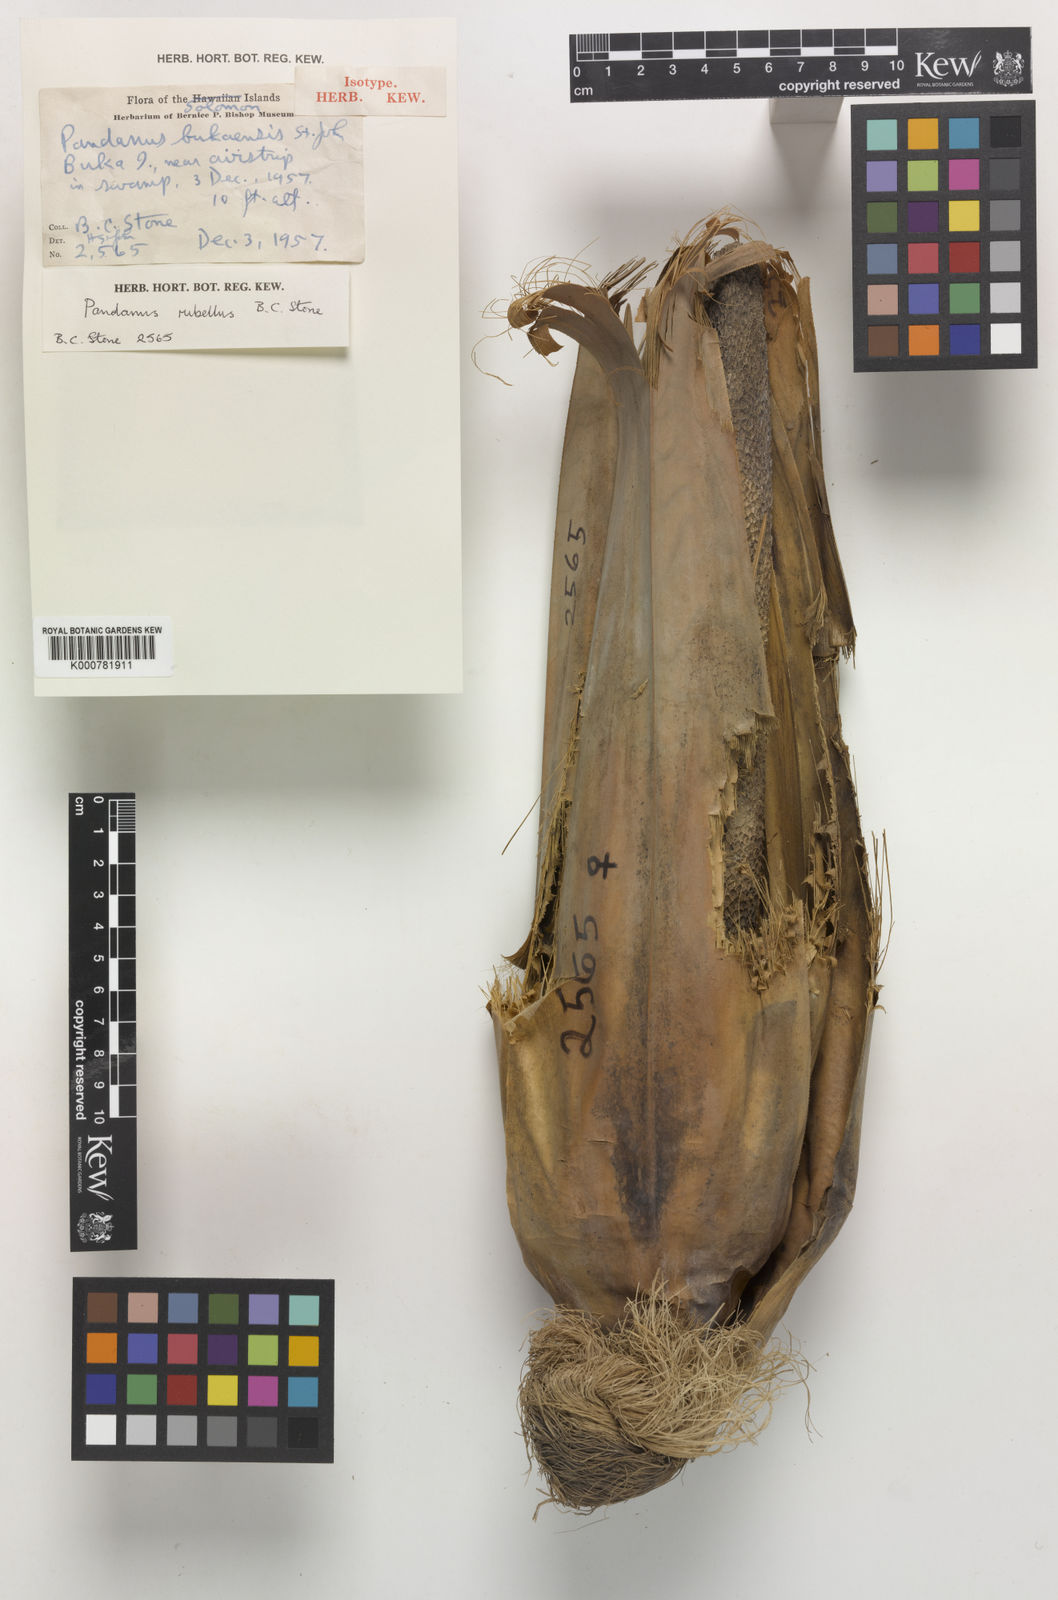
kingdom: Plantae
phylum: Tracheophyta
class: Liliopsida
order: Pandanales
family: Pandanaceae
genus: Pandanus
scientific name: Pandanus krauelianus
